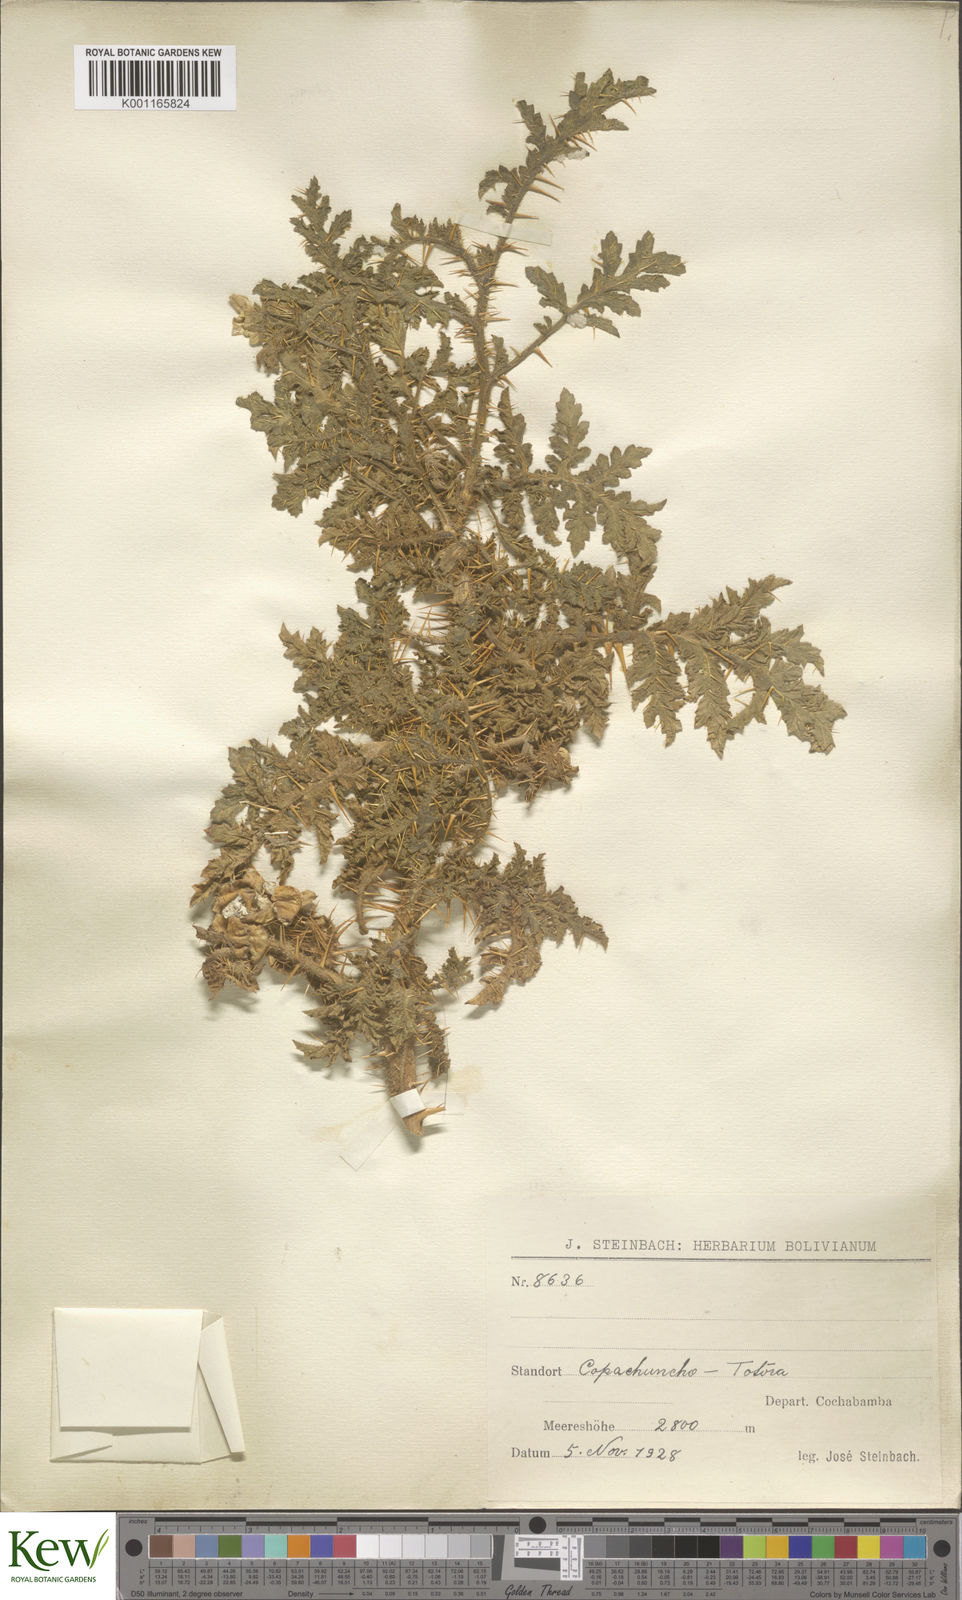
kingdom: Plantae
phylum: Tracheophyta
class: Magnoliopsida
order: Solanales
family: Solanaceae
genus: Solanum
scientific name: Solanum sisymbriifolium
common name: Red buffalo-bur
